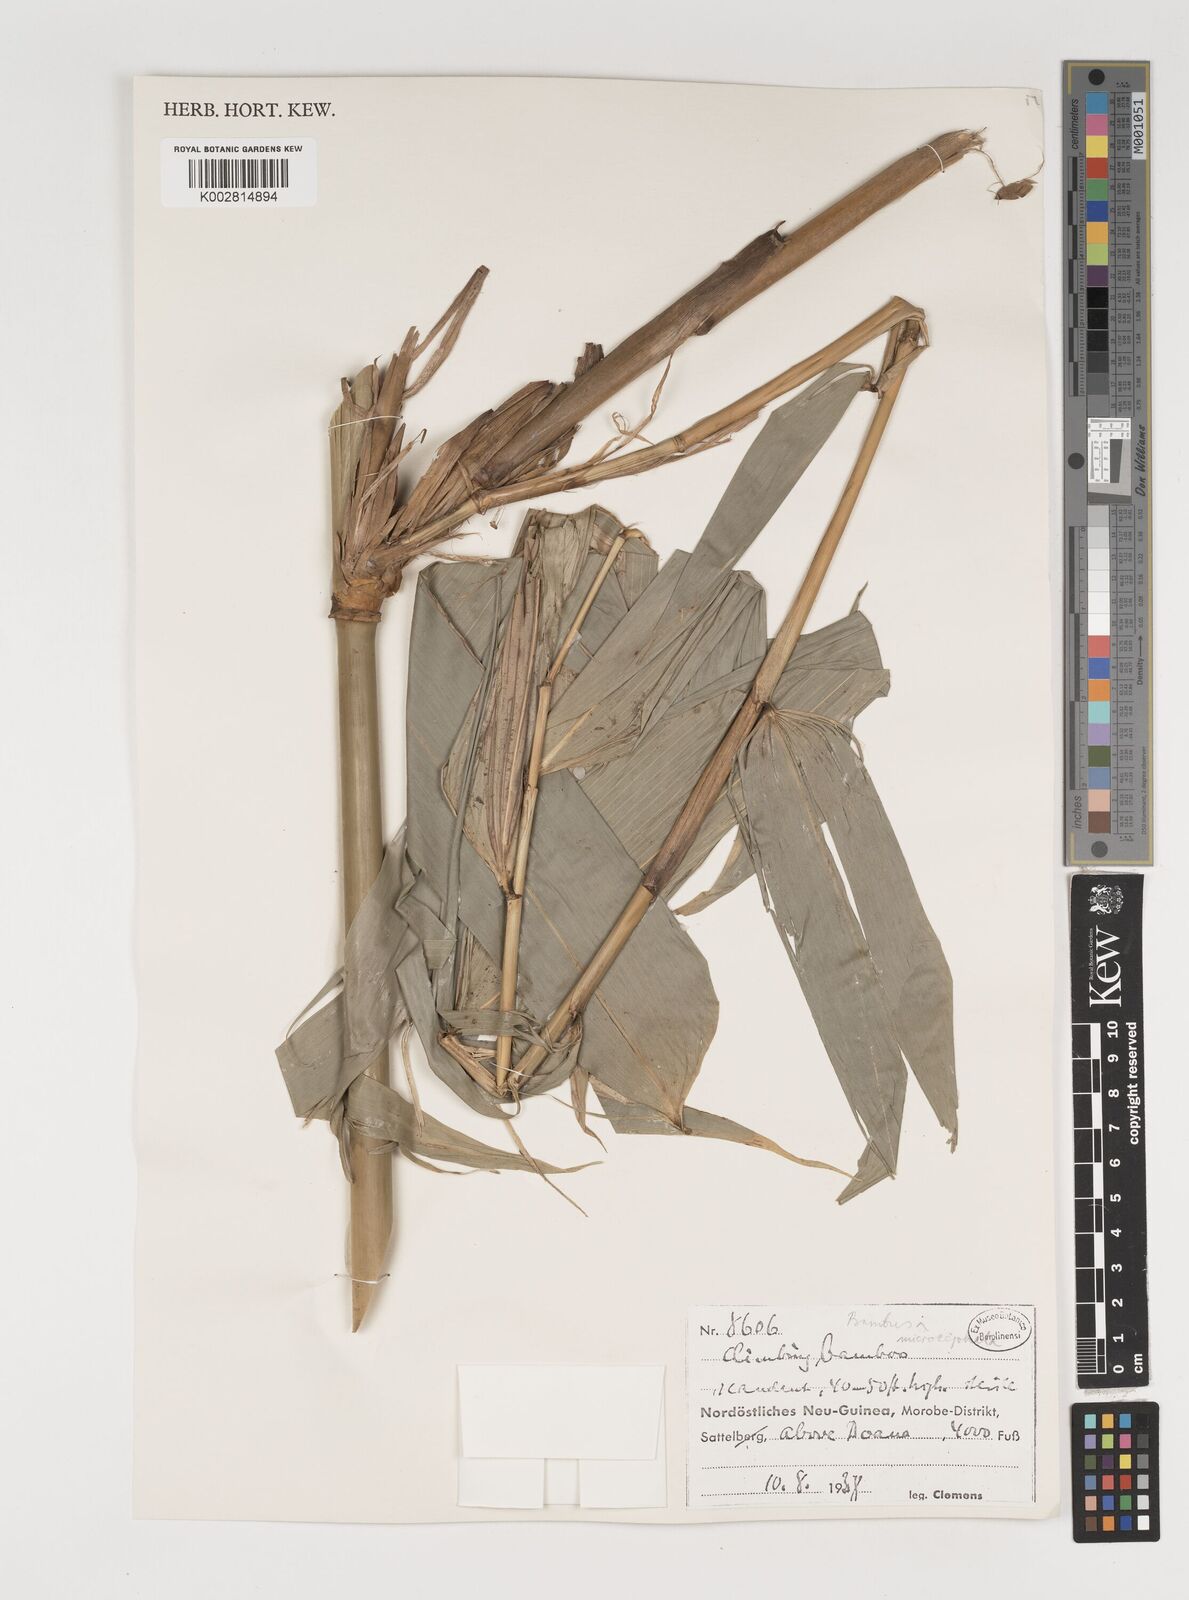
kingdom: Plantae
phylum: Tracheophyta
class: Liliopsida
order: Poales
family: Poaceae
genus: Fimbribambusa
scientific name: Fimbribambusa microcephala
